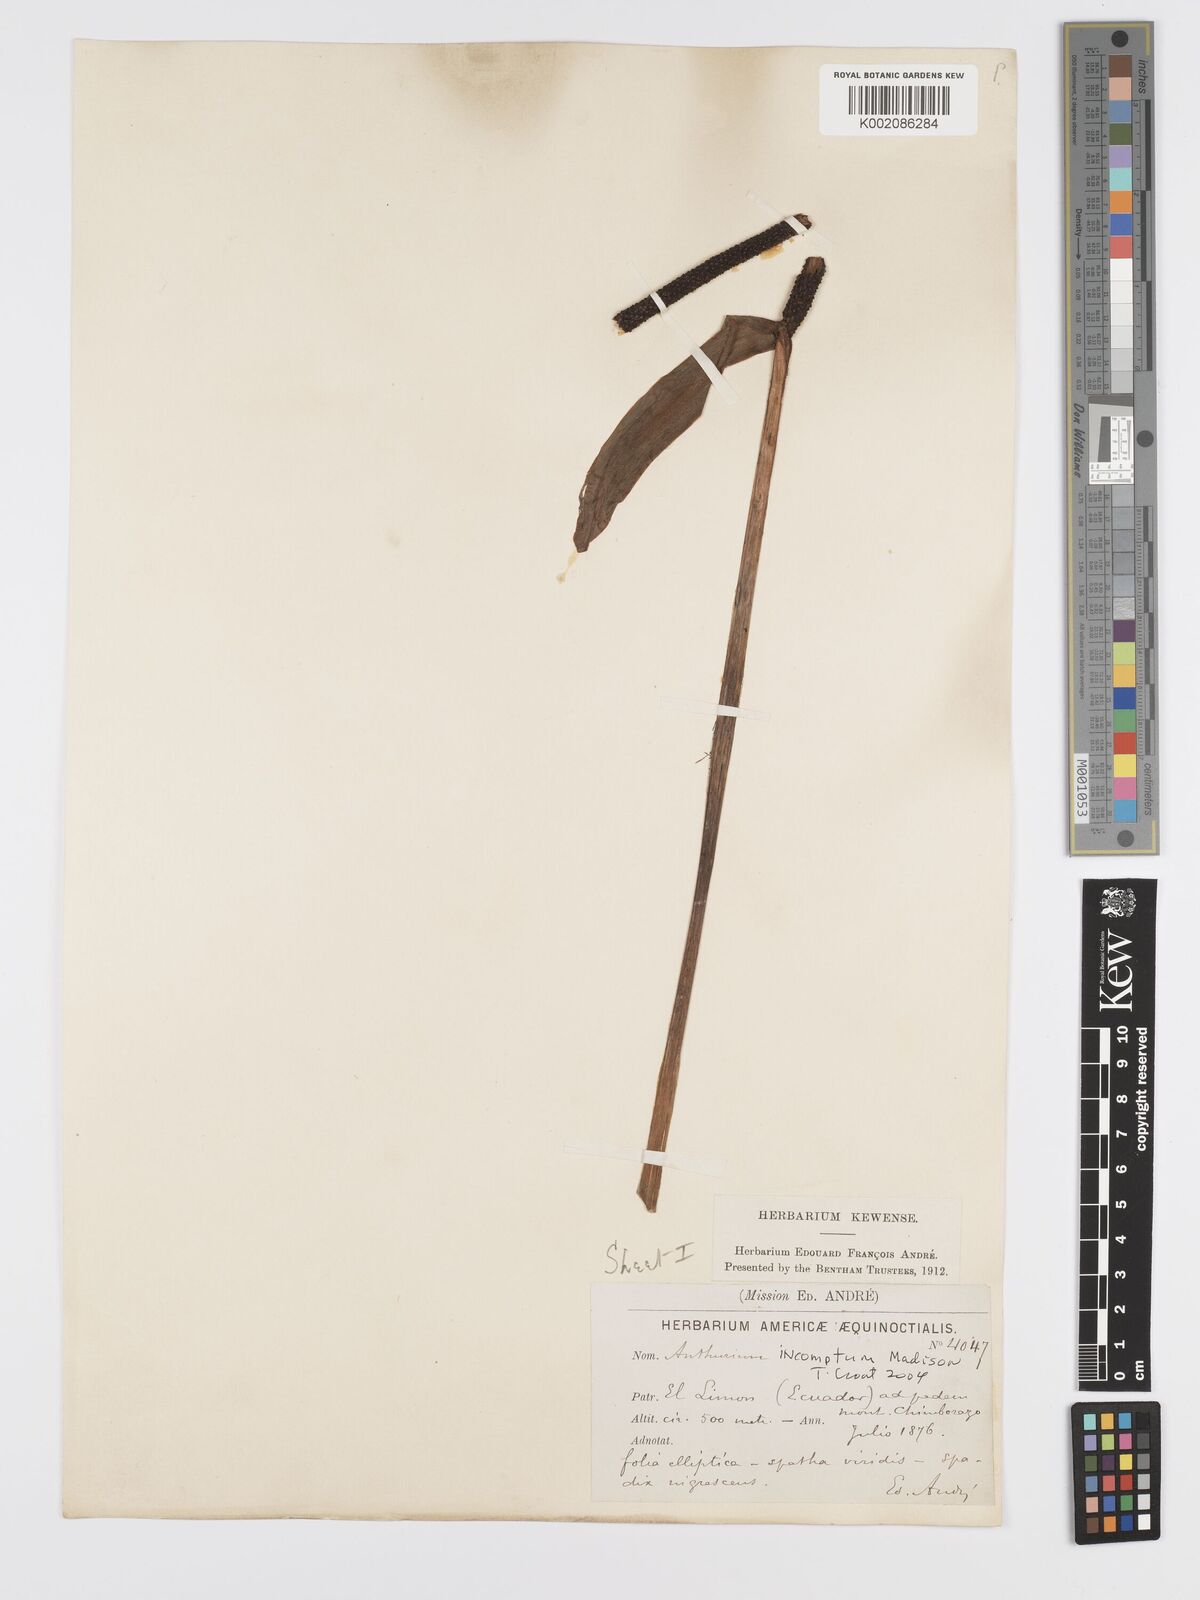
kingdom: Plantae
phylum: Tracheophyta
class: Liliopsida
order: Alismatales
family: Araceae
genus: Anthurium
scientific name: Anthurium incomptum
